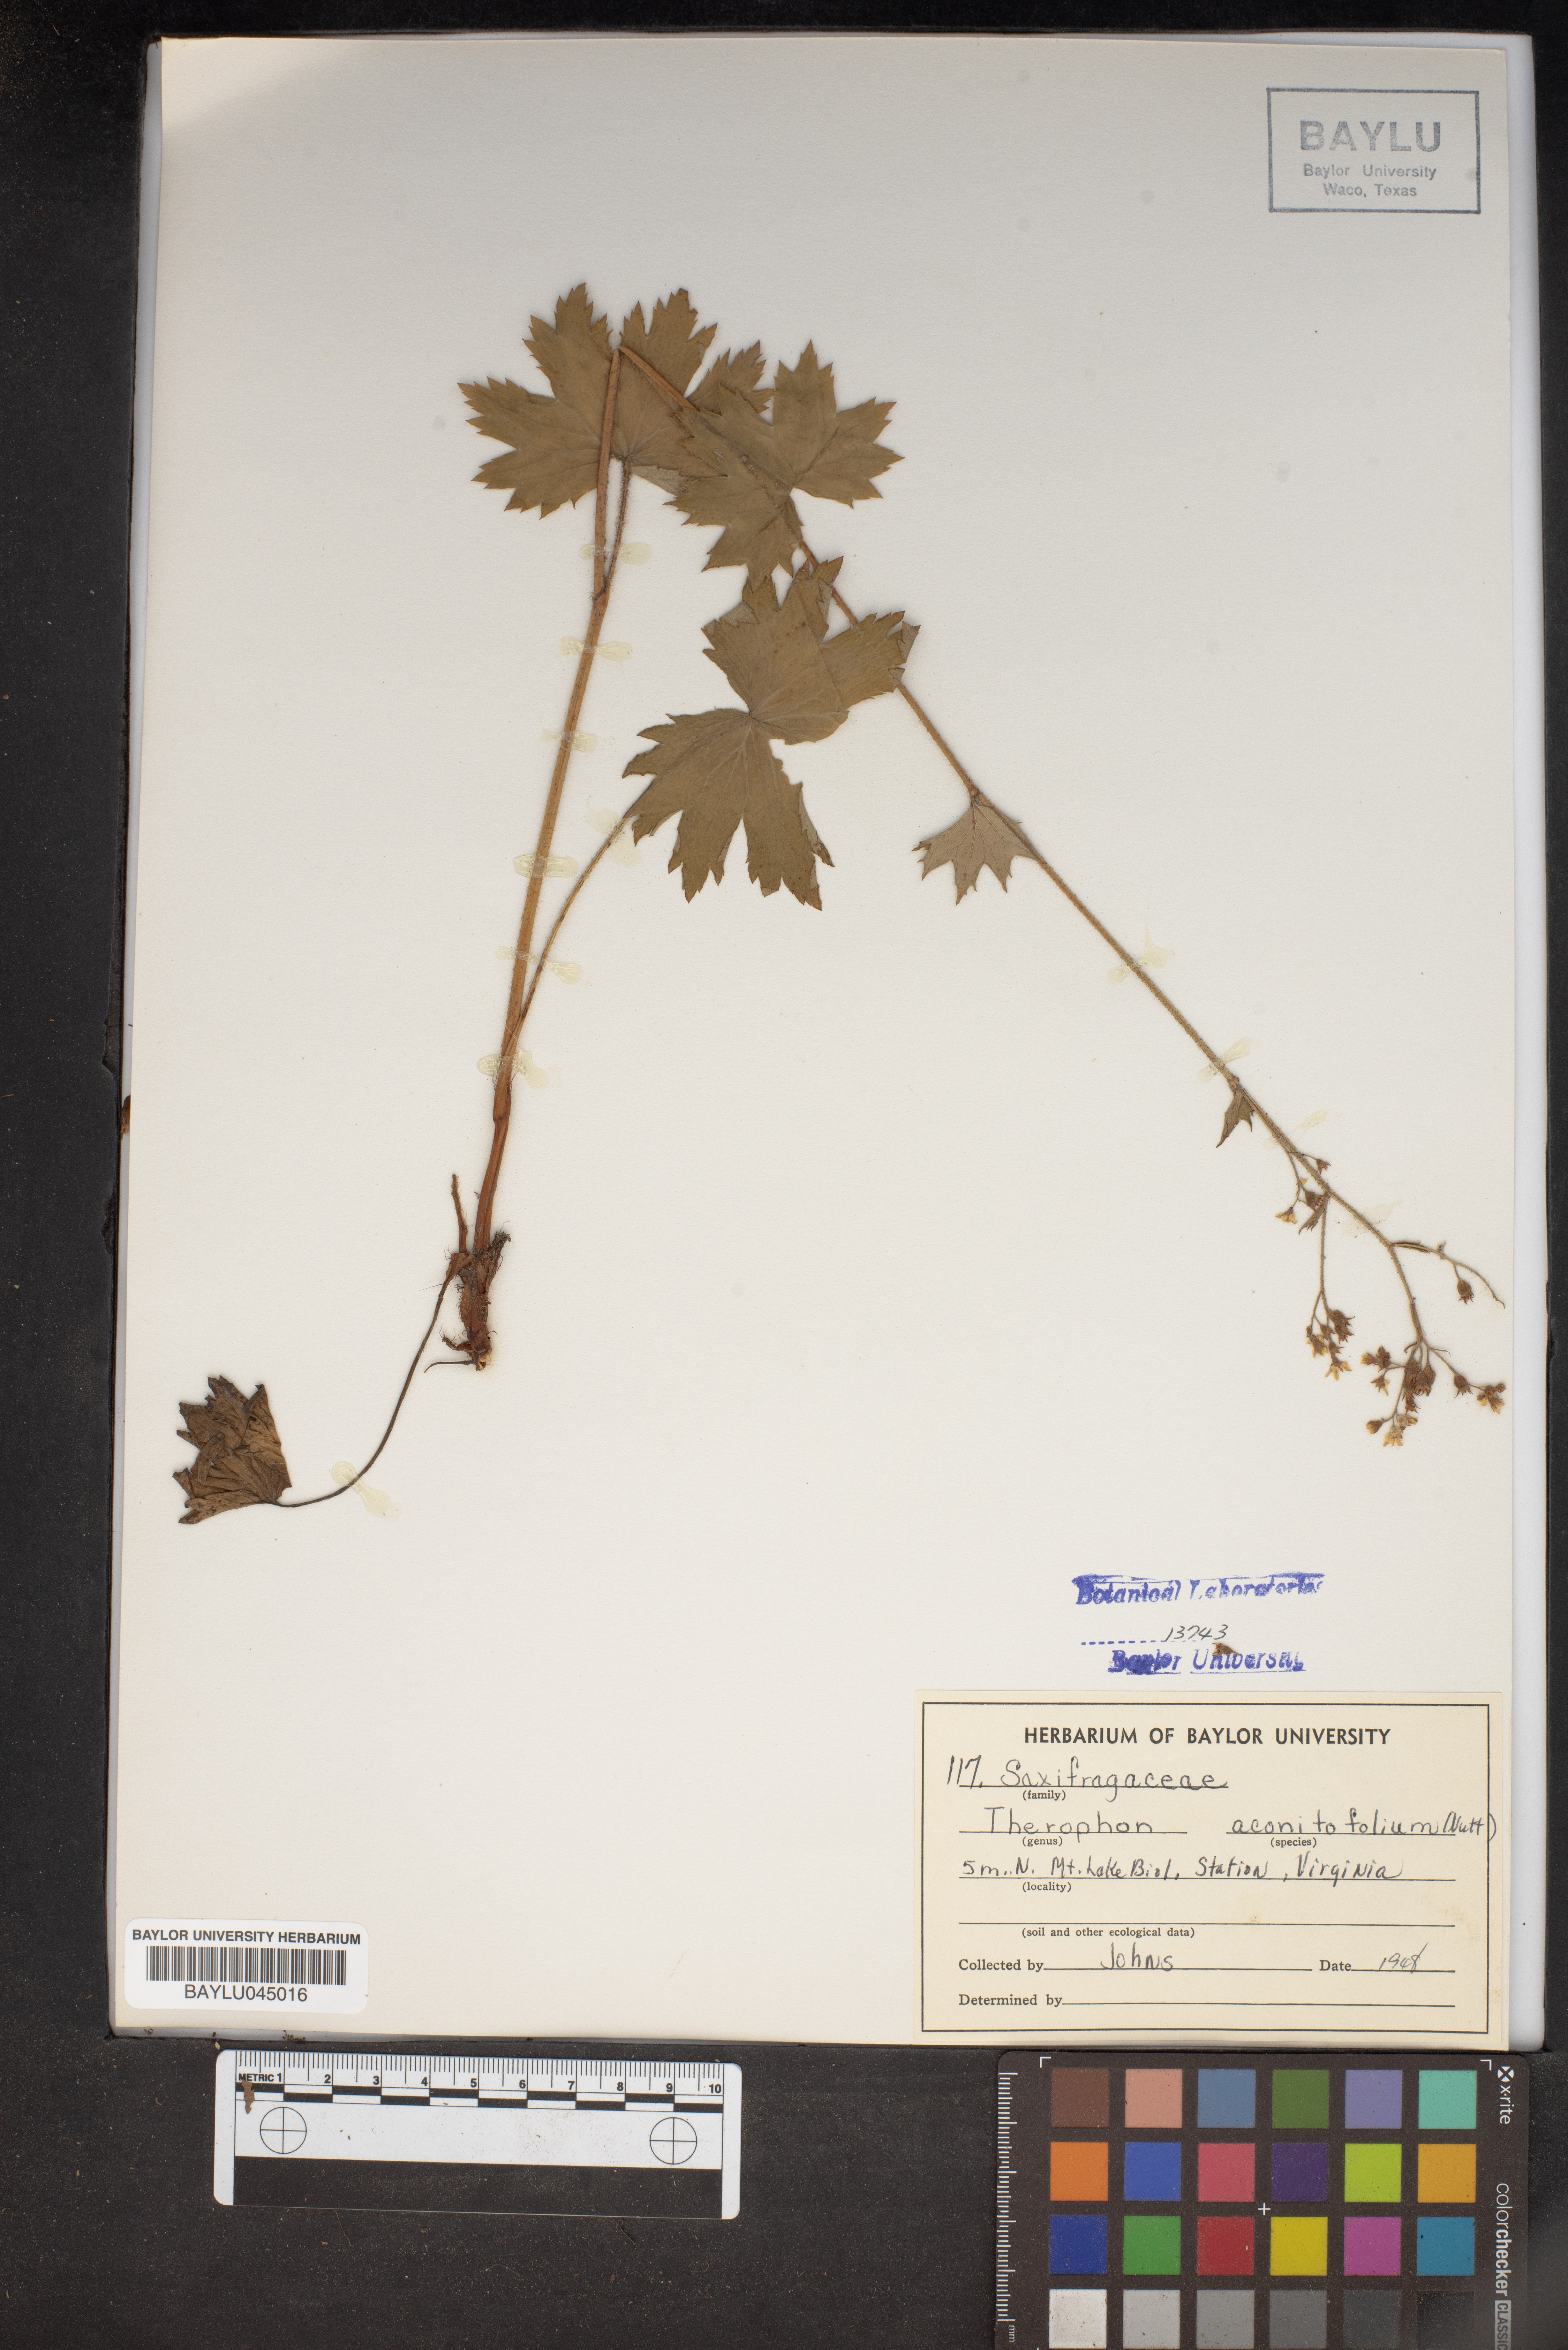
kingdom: Plantae
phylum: Tracheophyta
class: Magnoliopsida
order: Saxifragales
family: Saxifragaceae
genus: Boykinia
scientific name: Boykinia aconitifolia
